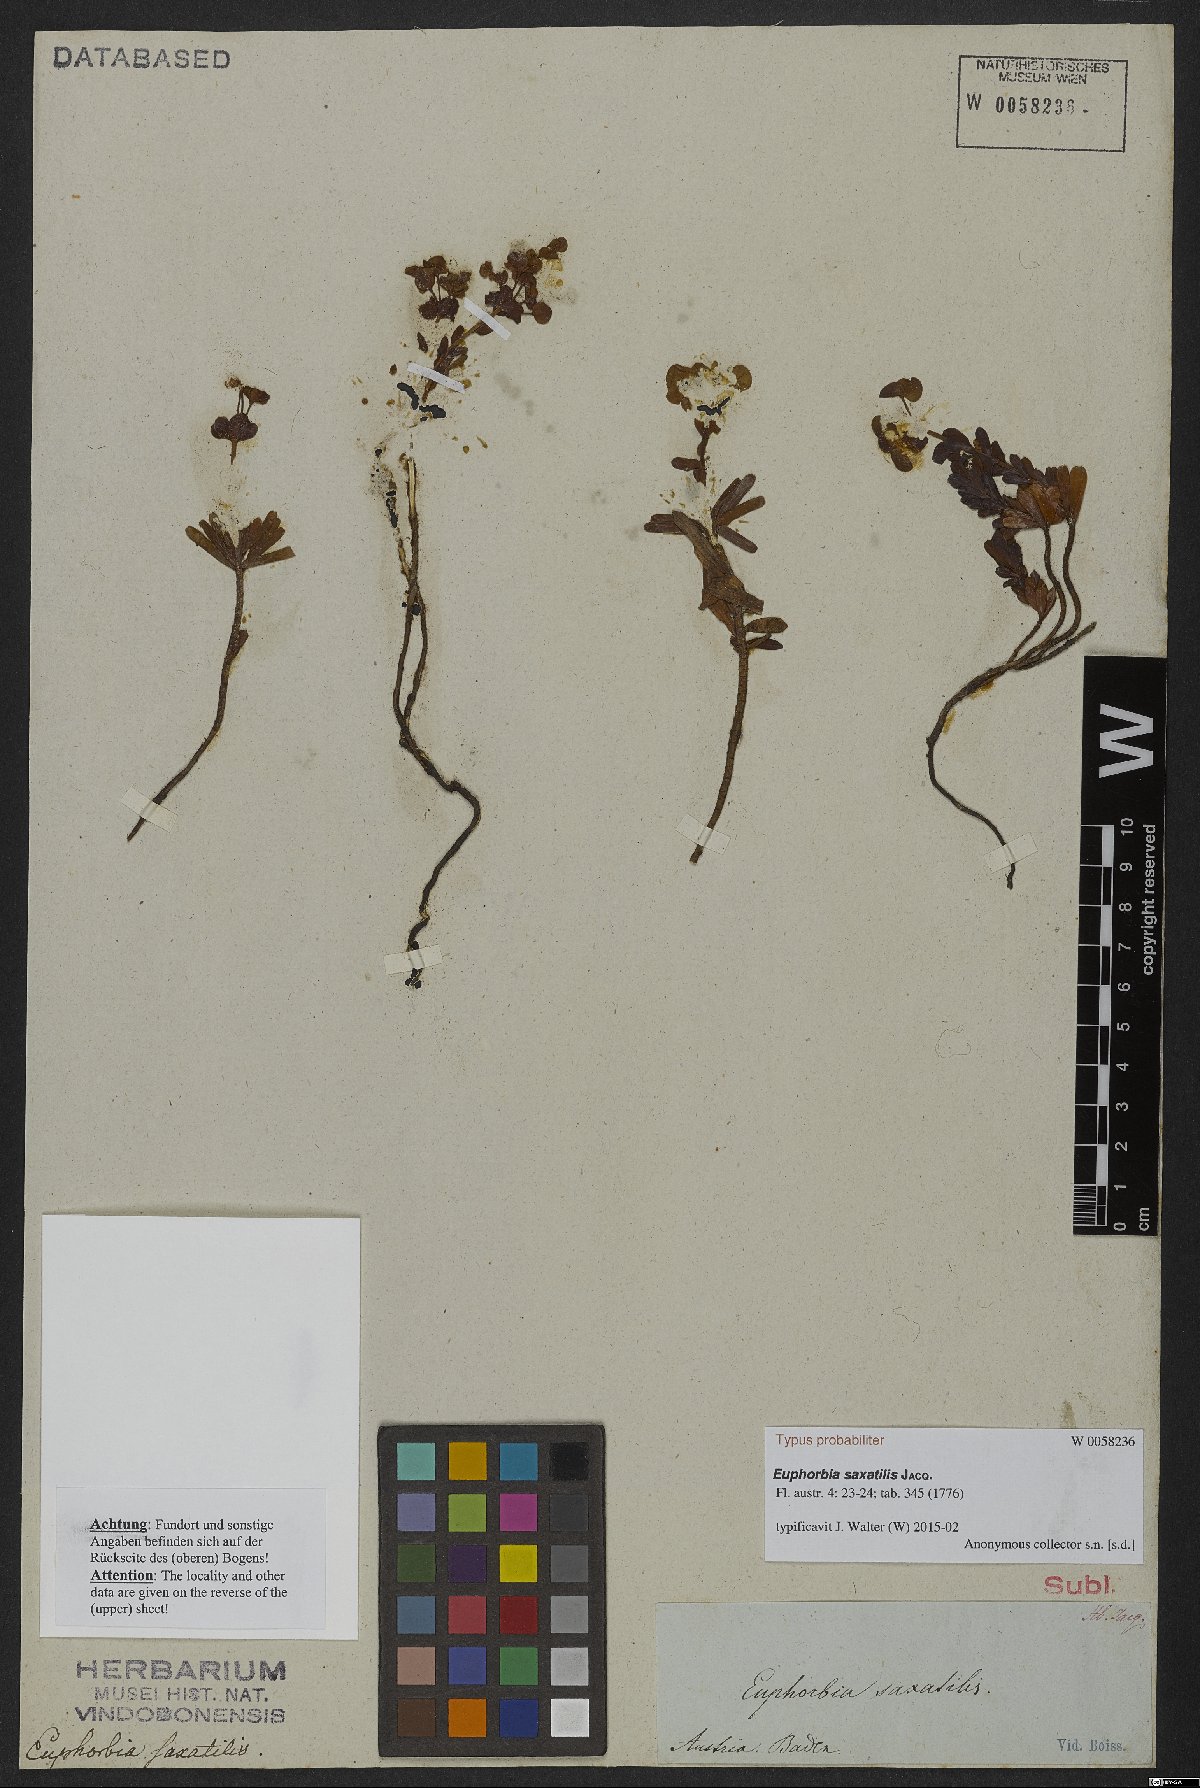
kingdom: Plantae
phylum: Tracheophyta
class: Magnoliopsida
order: Malpighiales
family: Euphorbiaceae
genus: Euphorbia
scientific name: Euphorbia saxatilis
